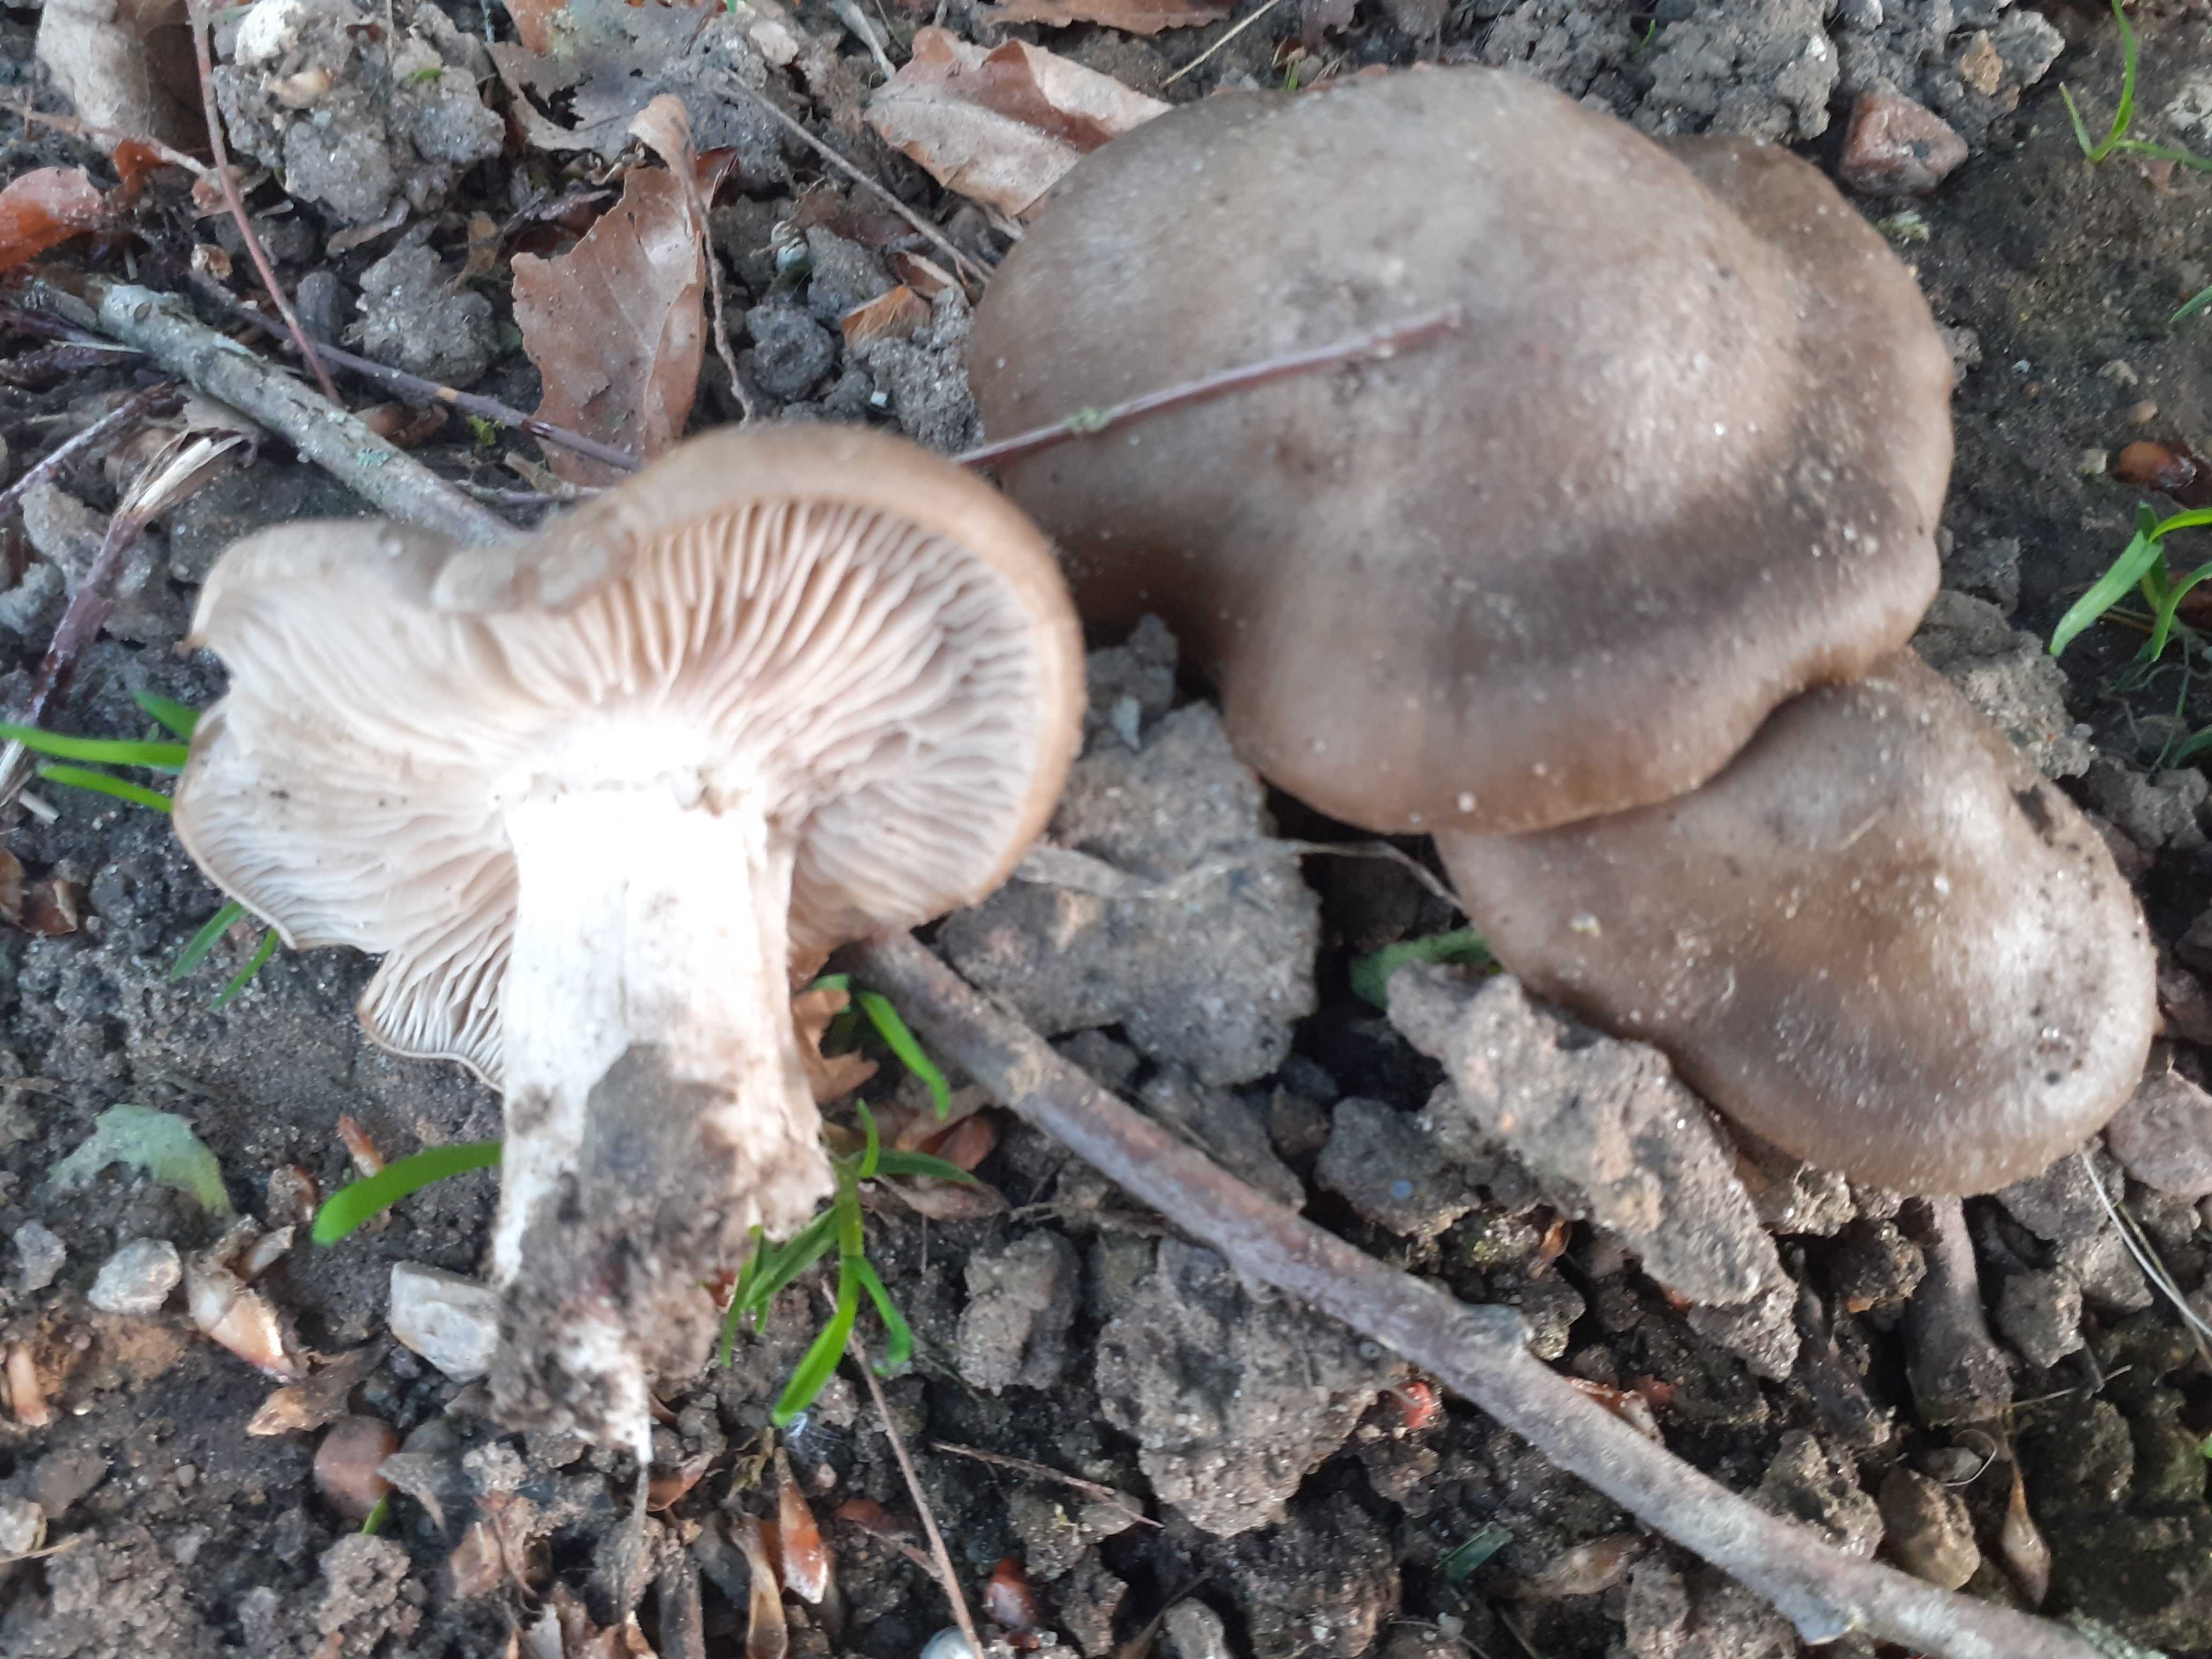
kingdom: Fungi
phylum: Basidiomycota
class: Agaricomycetes
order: Agaricales
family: Entolomataceae
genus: Entoloma
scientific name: Entoloma clypeatum
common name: flammet rødblad
